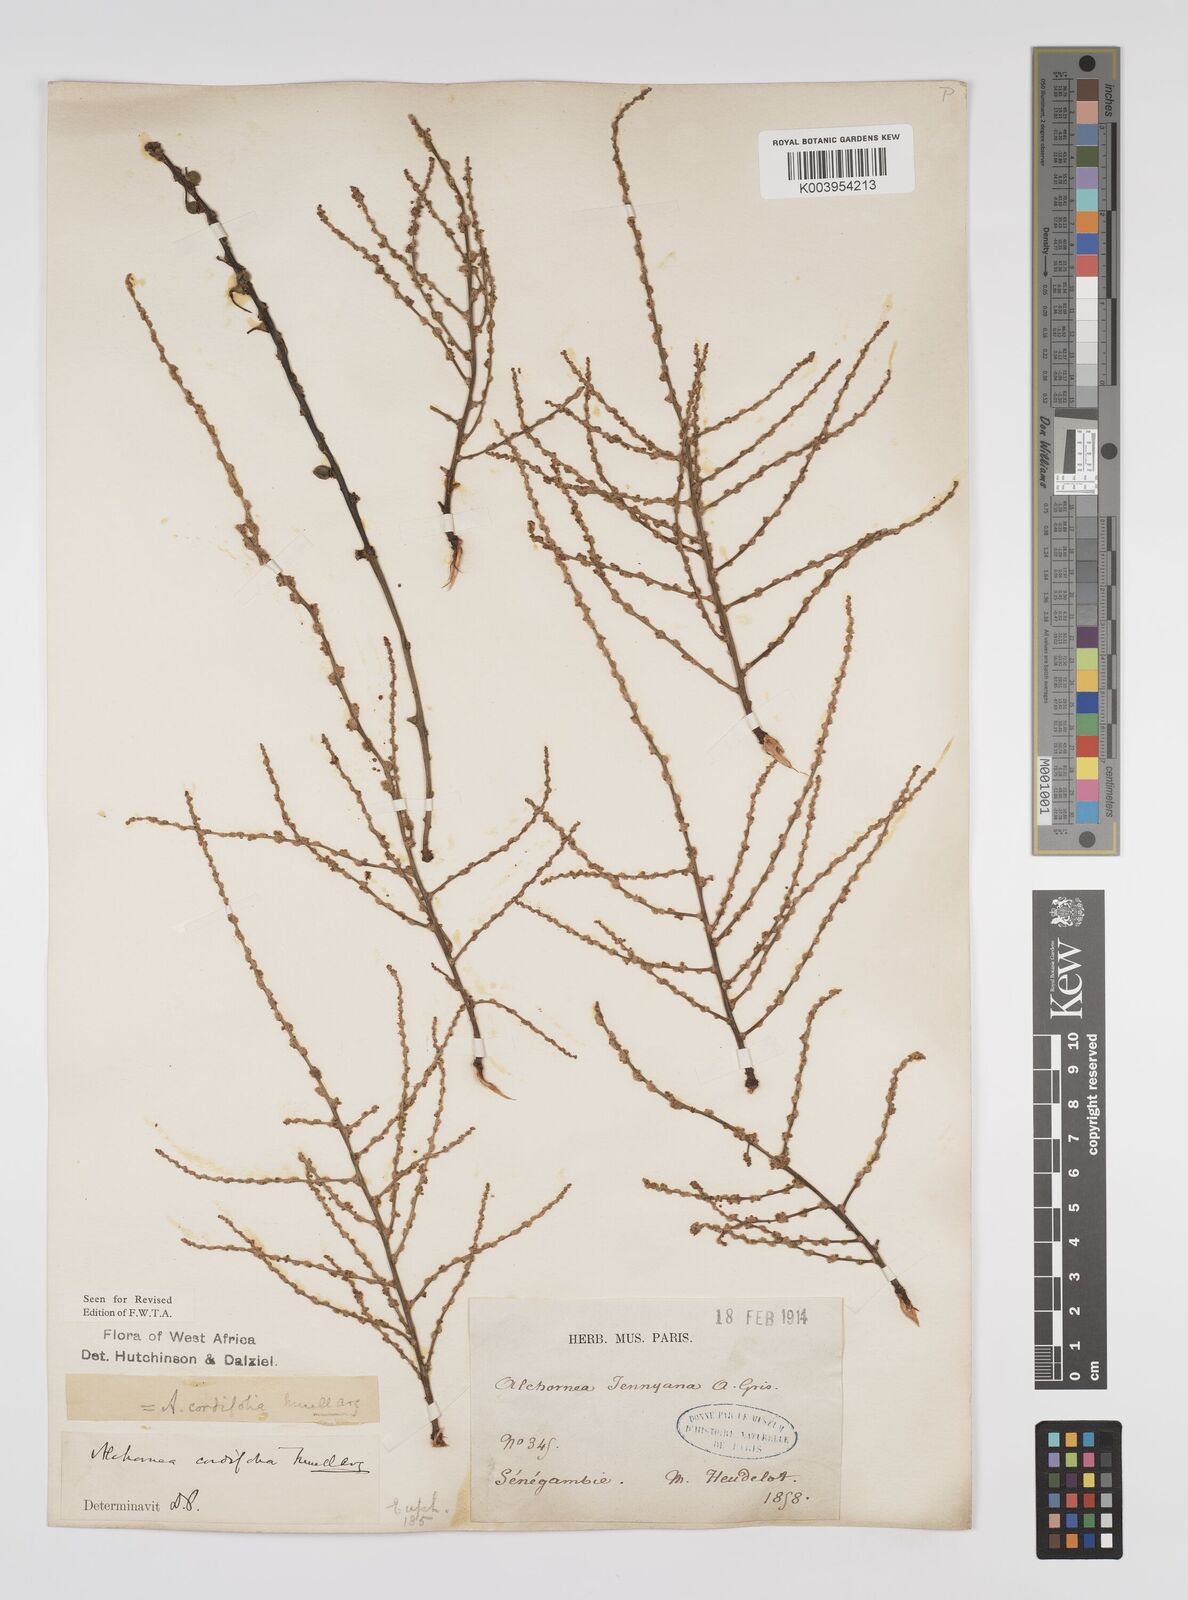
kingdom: Plantae
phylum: Tracheophyta
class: Magnoliopsida
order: Malpighiales
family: Euphorbiaceae
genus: Alchornea
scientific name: Alchornea cordifolia
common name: Christmasbush
